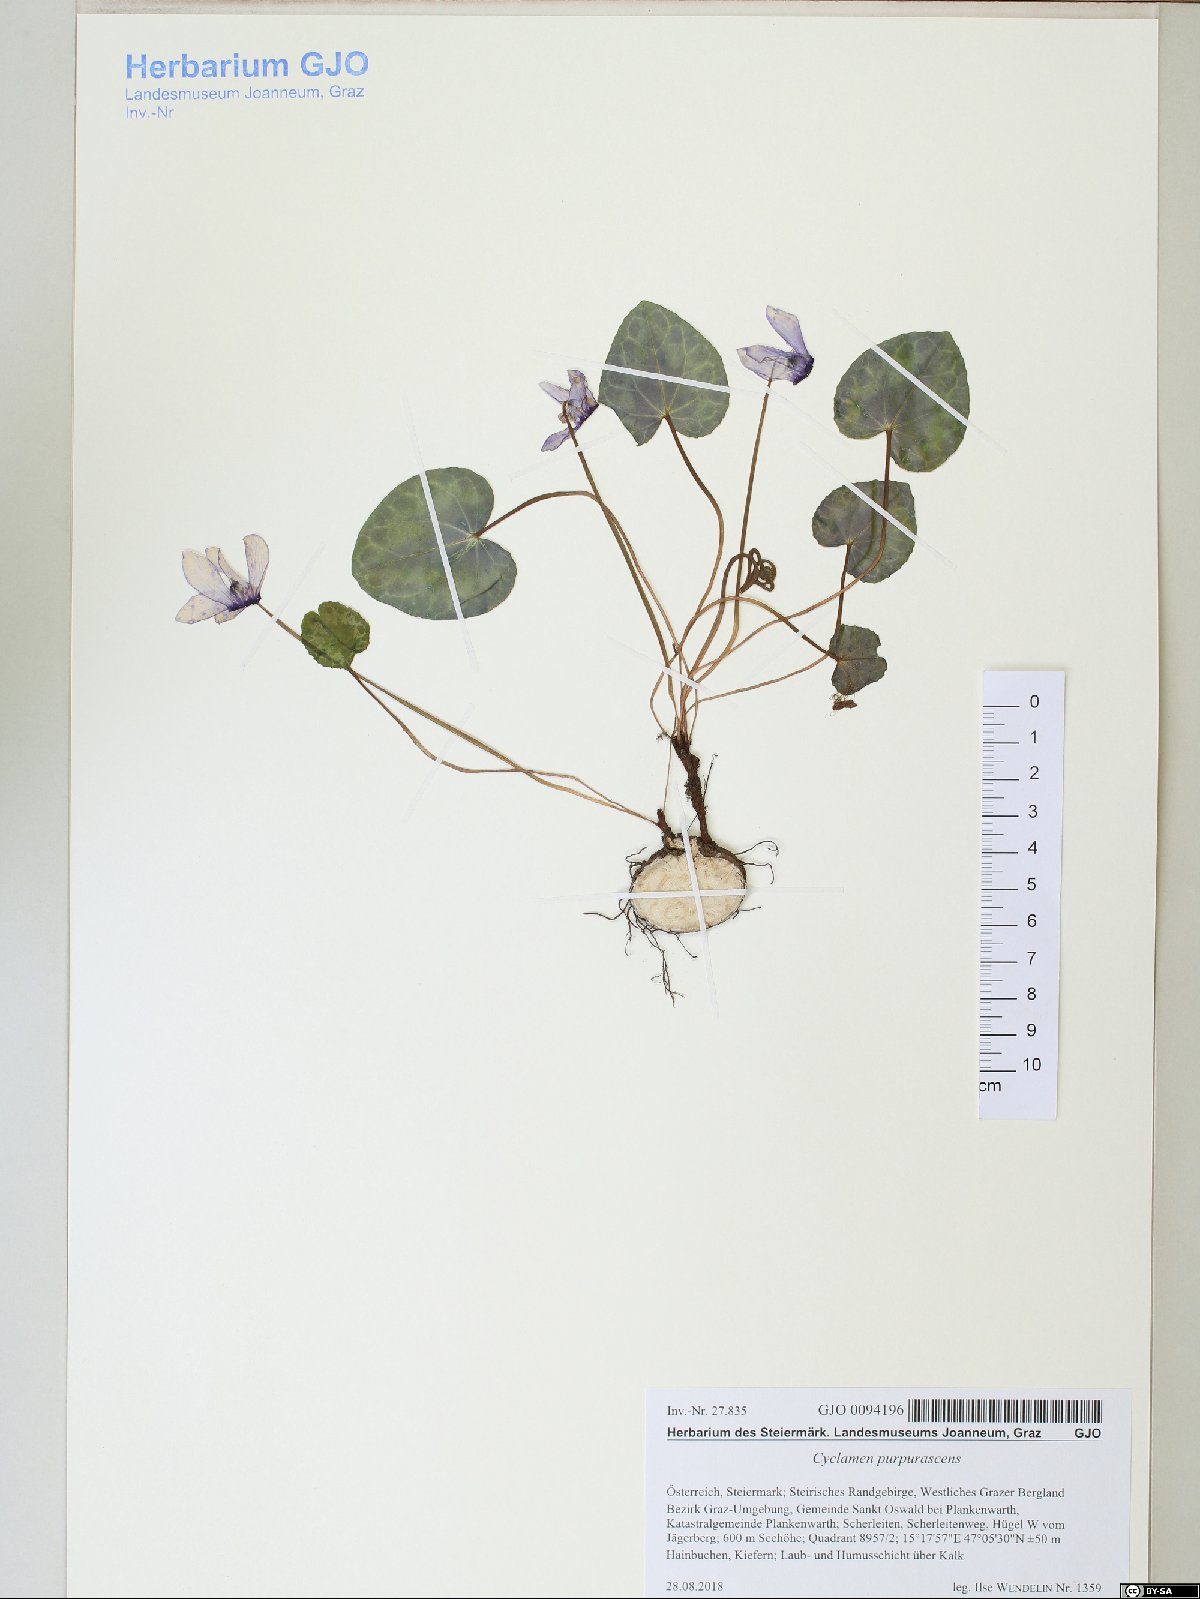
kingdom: Plantae
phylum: Tracheophyta
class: Magnoliopsida
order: Ericales
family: Primulaceae
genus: Cyclamen
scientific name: Cyclamen purpurascens
